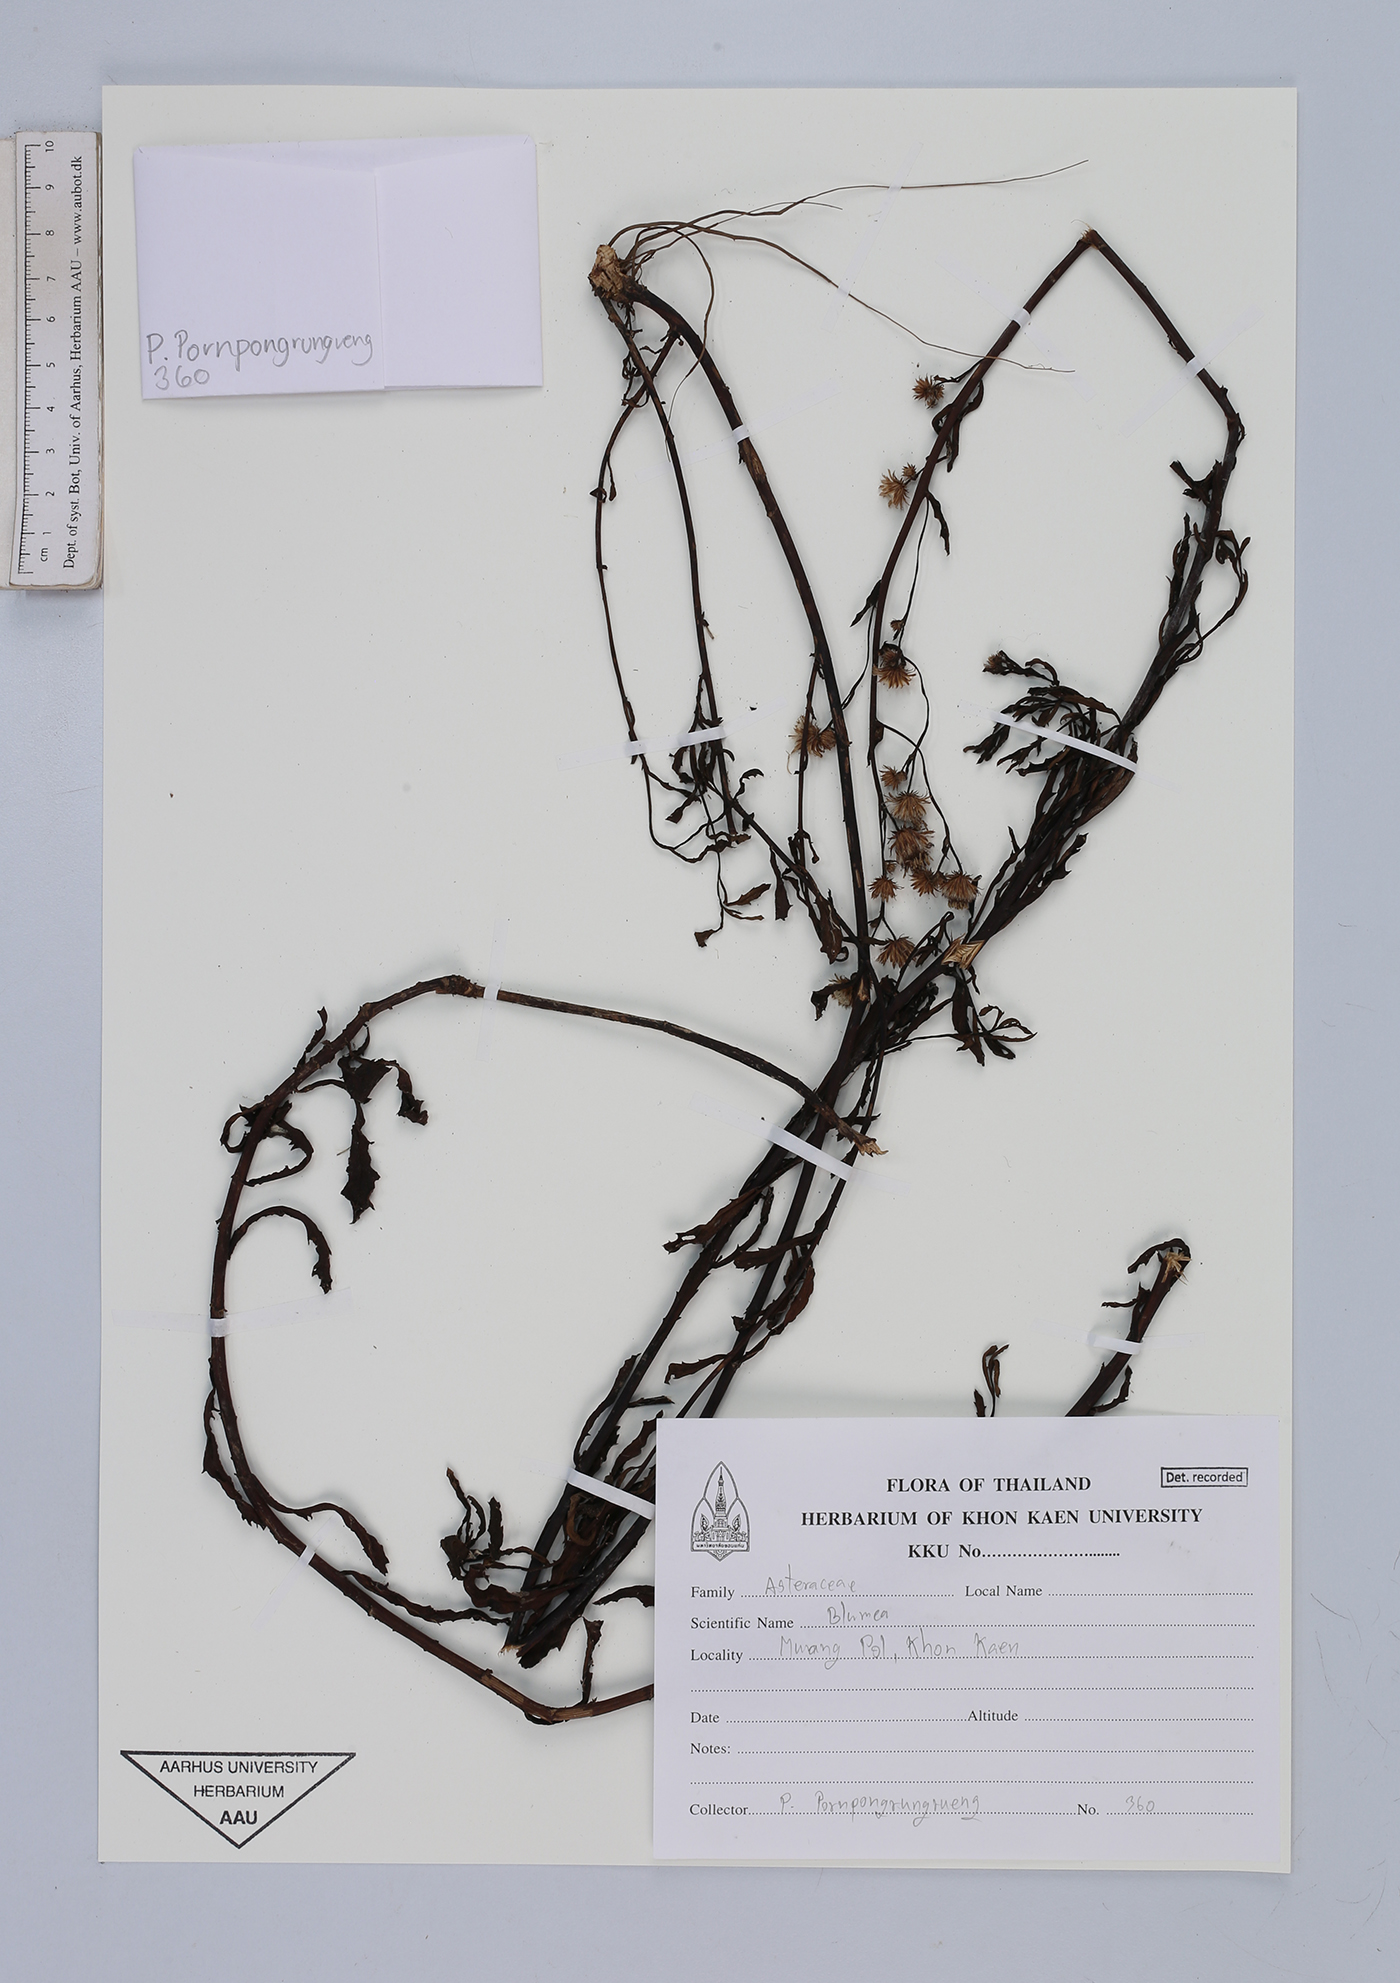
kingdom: Plantae
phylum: Tracheophyta
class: Magnoliopsida
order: Asterales
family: Asteraceae
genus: Blumea
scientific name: Blumea
